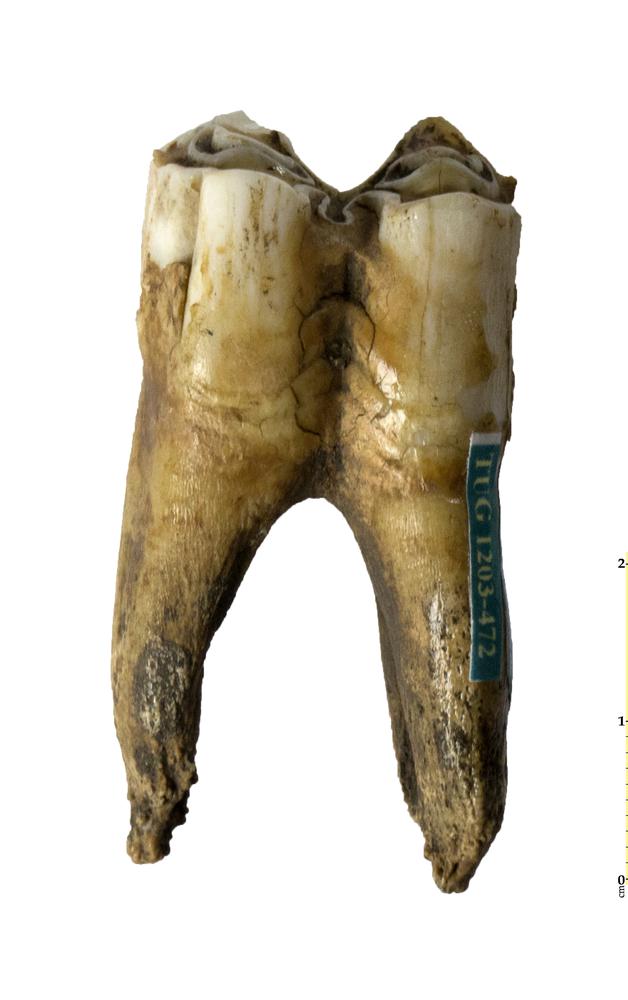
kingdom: Animalia
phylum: Chordata
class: Mammalia
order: Artiodactyla
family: Bovidae
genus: Bos
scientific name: Bos
